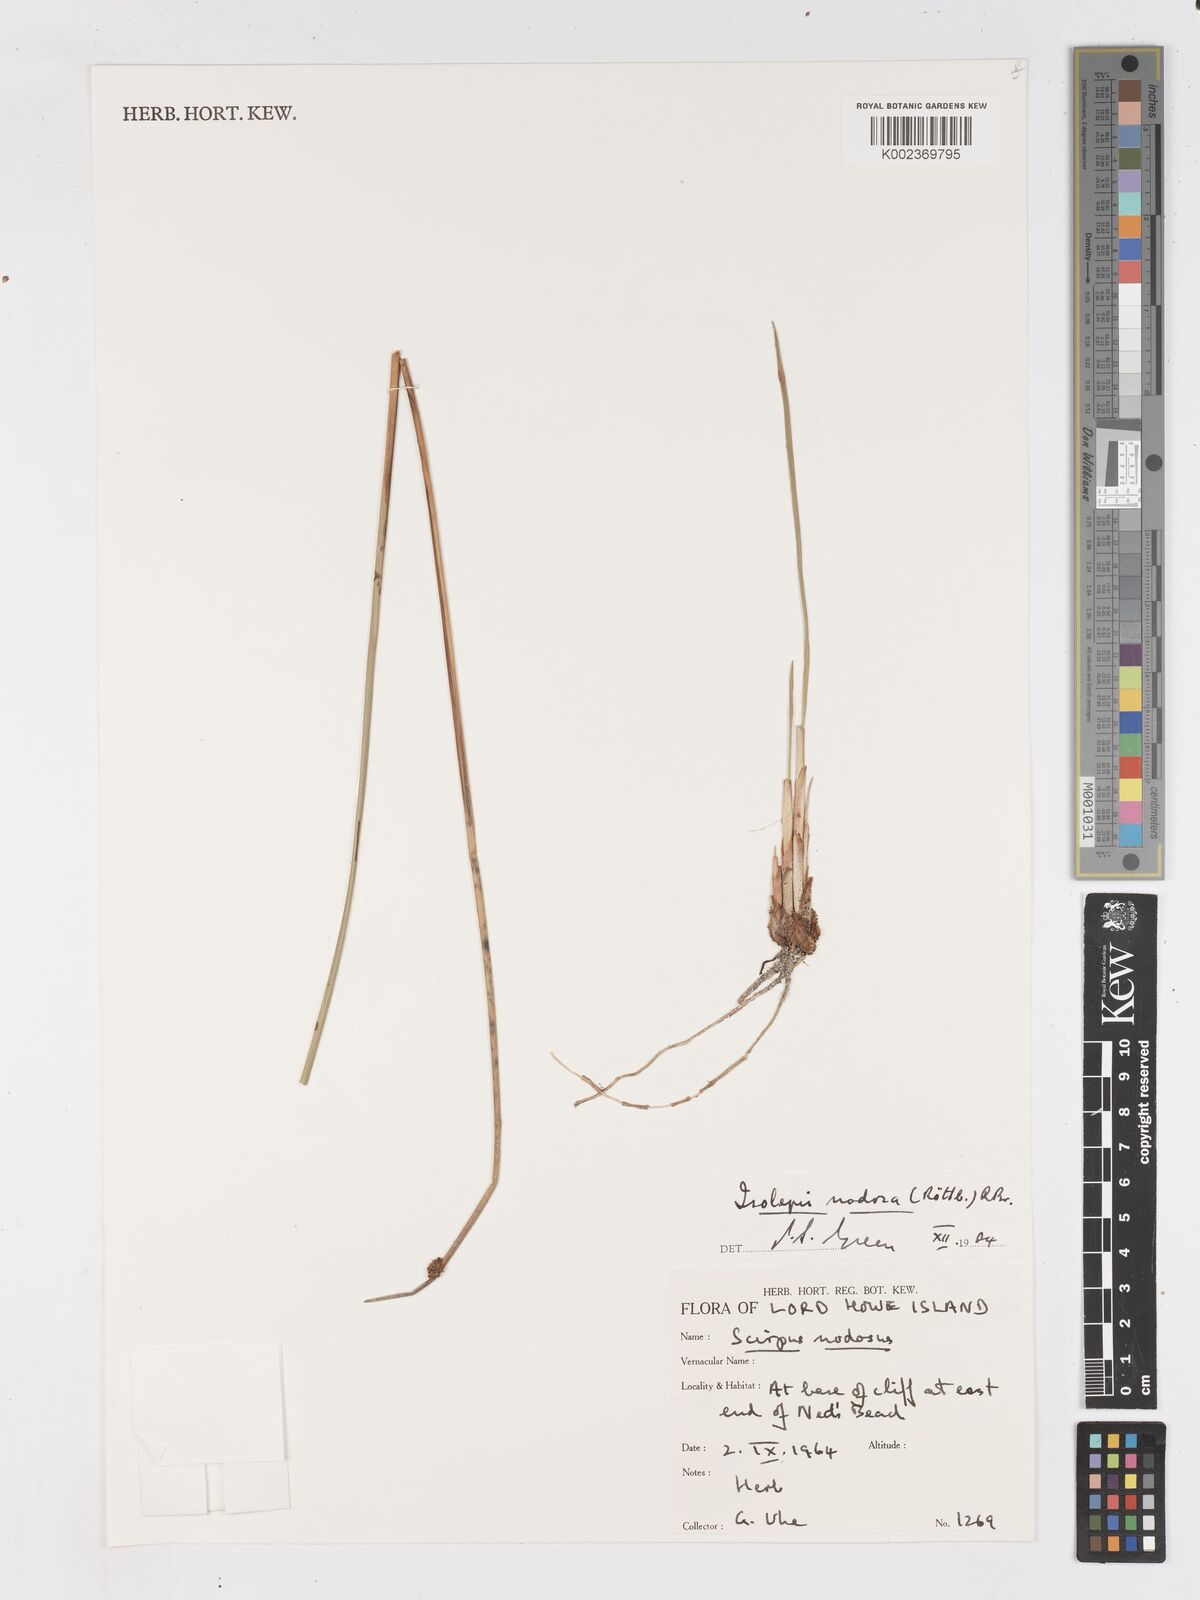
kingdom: Plantae
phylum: Tracheophyta
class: Liliopsida
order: Poales
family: Cyperaceae
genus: Ficinia
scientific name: Ficinia nodosa
